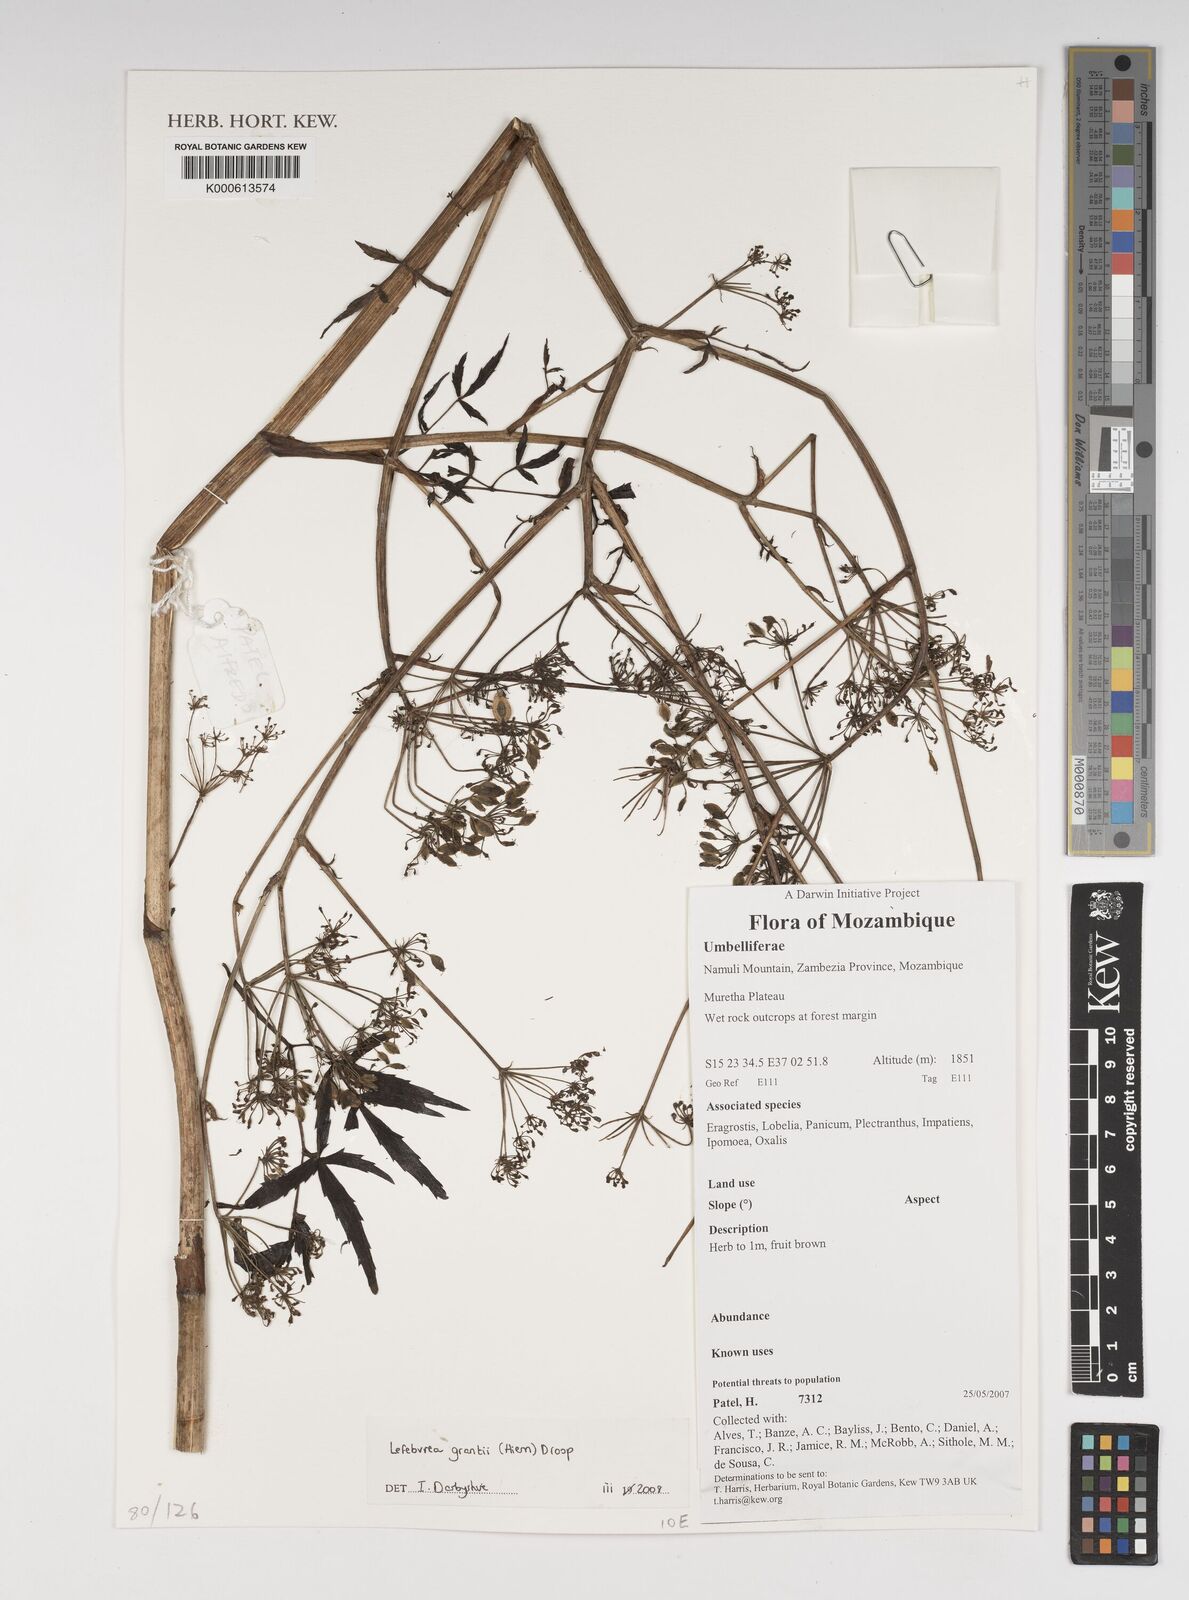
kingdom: Plantae
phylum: Tracheophyta
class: Magnoliopsida
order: Apiales
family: Apiaceae
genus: Lefebvrea
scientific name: Lefebvrea grantii
